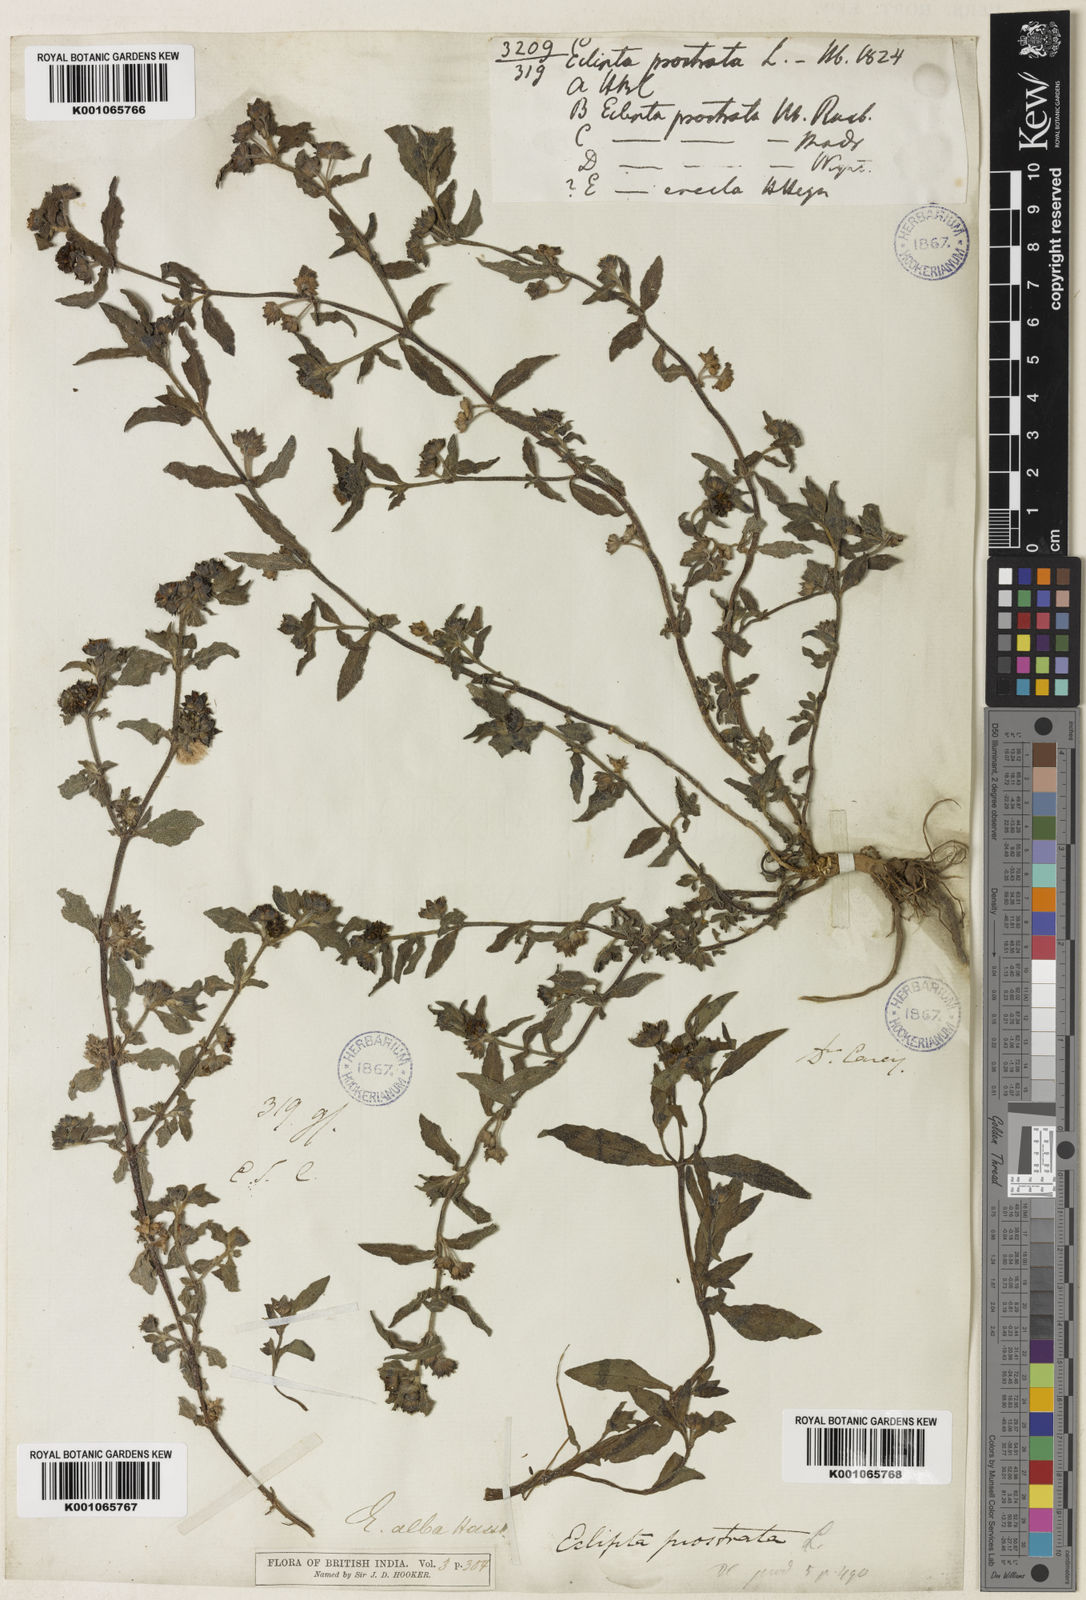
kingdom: Plantae
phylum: Tracheophyta
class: Magnoliopsida
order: Asterales
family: Asteraceae
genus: Eclipta
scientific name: Eclipta alba
